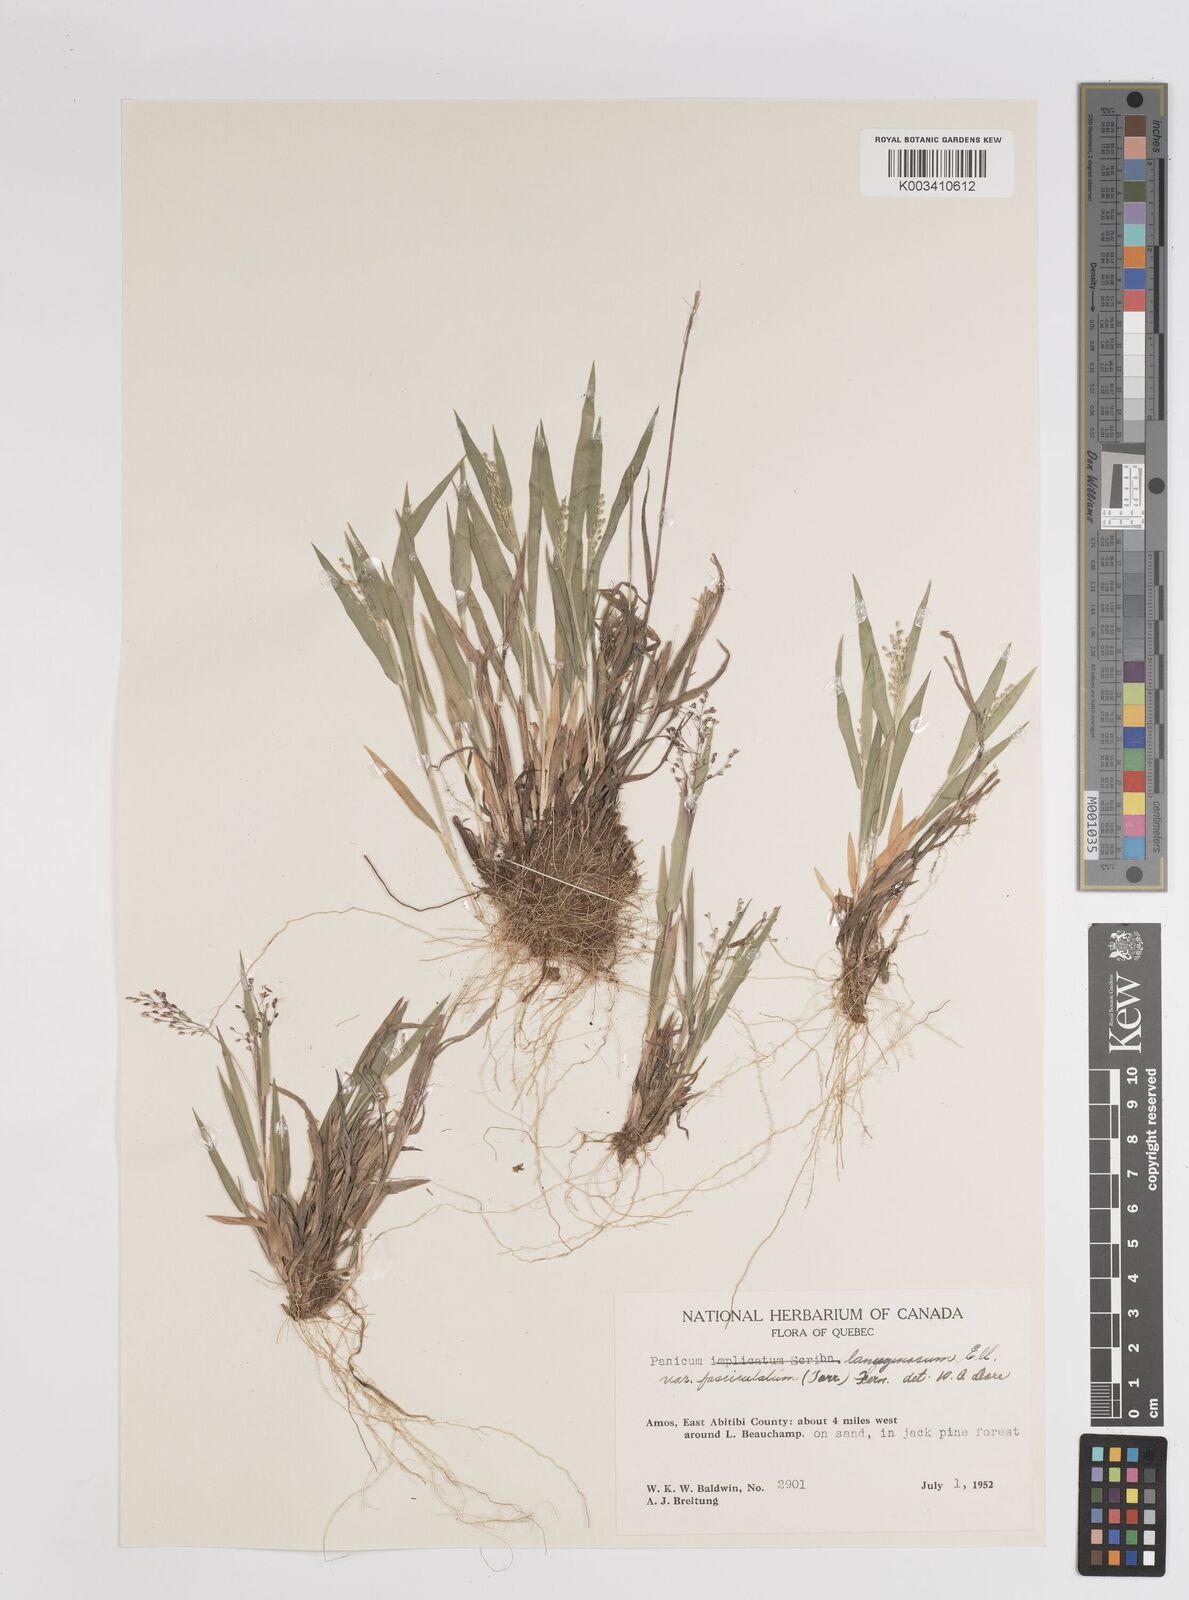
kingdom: Plantae
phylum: Tracheophyta
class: Liliopsida
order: Poales
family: Poaceae
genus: Dichanthelium
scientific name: Dichanthelium lanuginosum
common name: Woolly panicgrass
